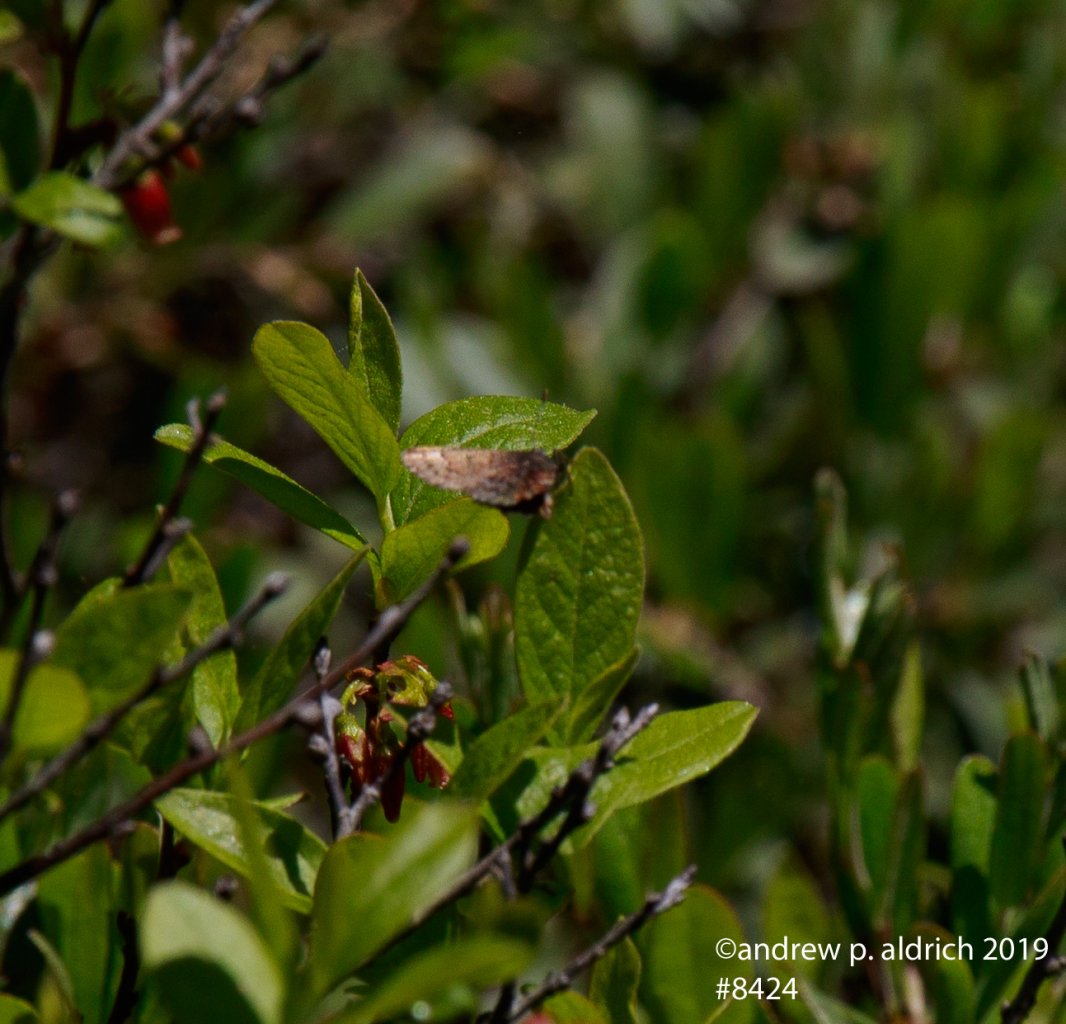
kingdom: Animalia
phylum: Arthropoda
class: Insecta
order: Lepidoptera
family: Lycaenidae
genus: Incisalia
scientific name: Incisalia niphon
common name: Eastern Pine Elfin
